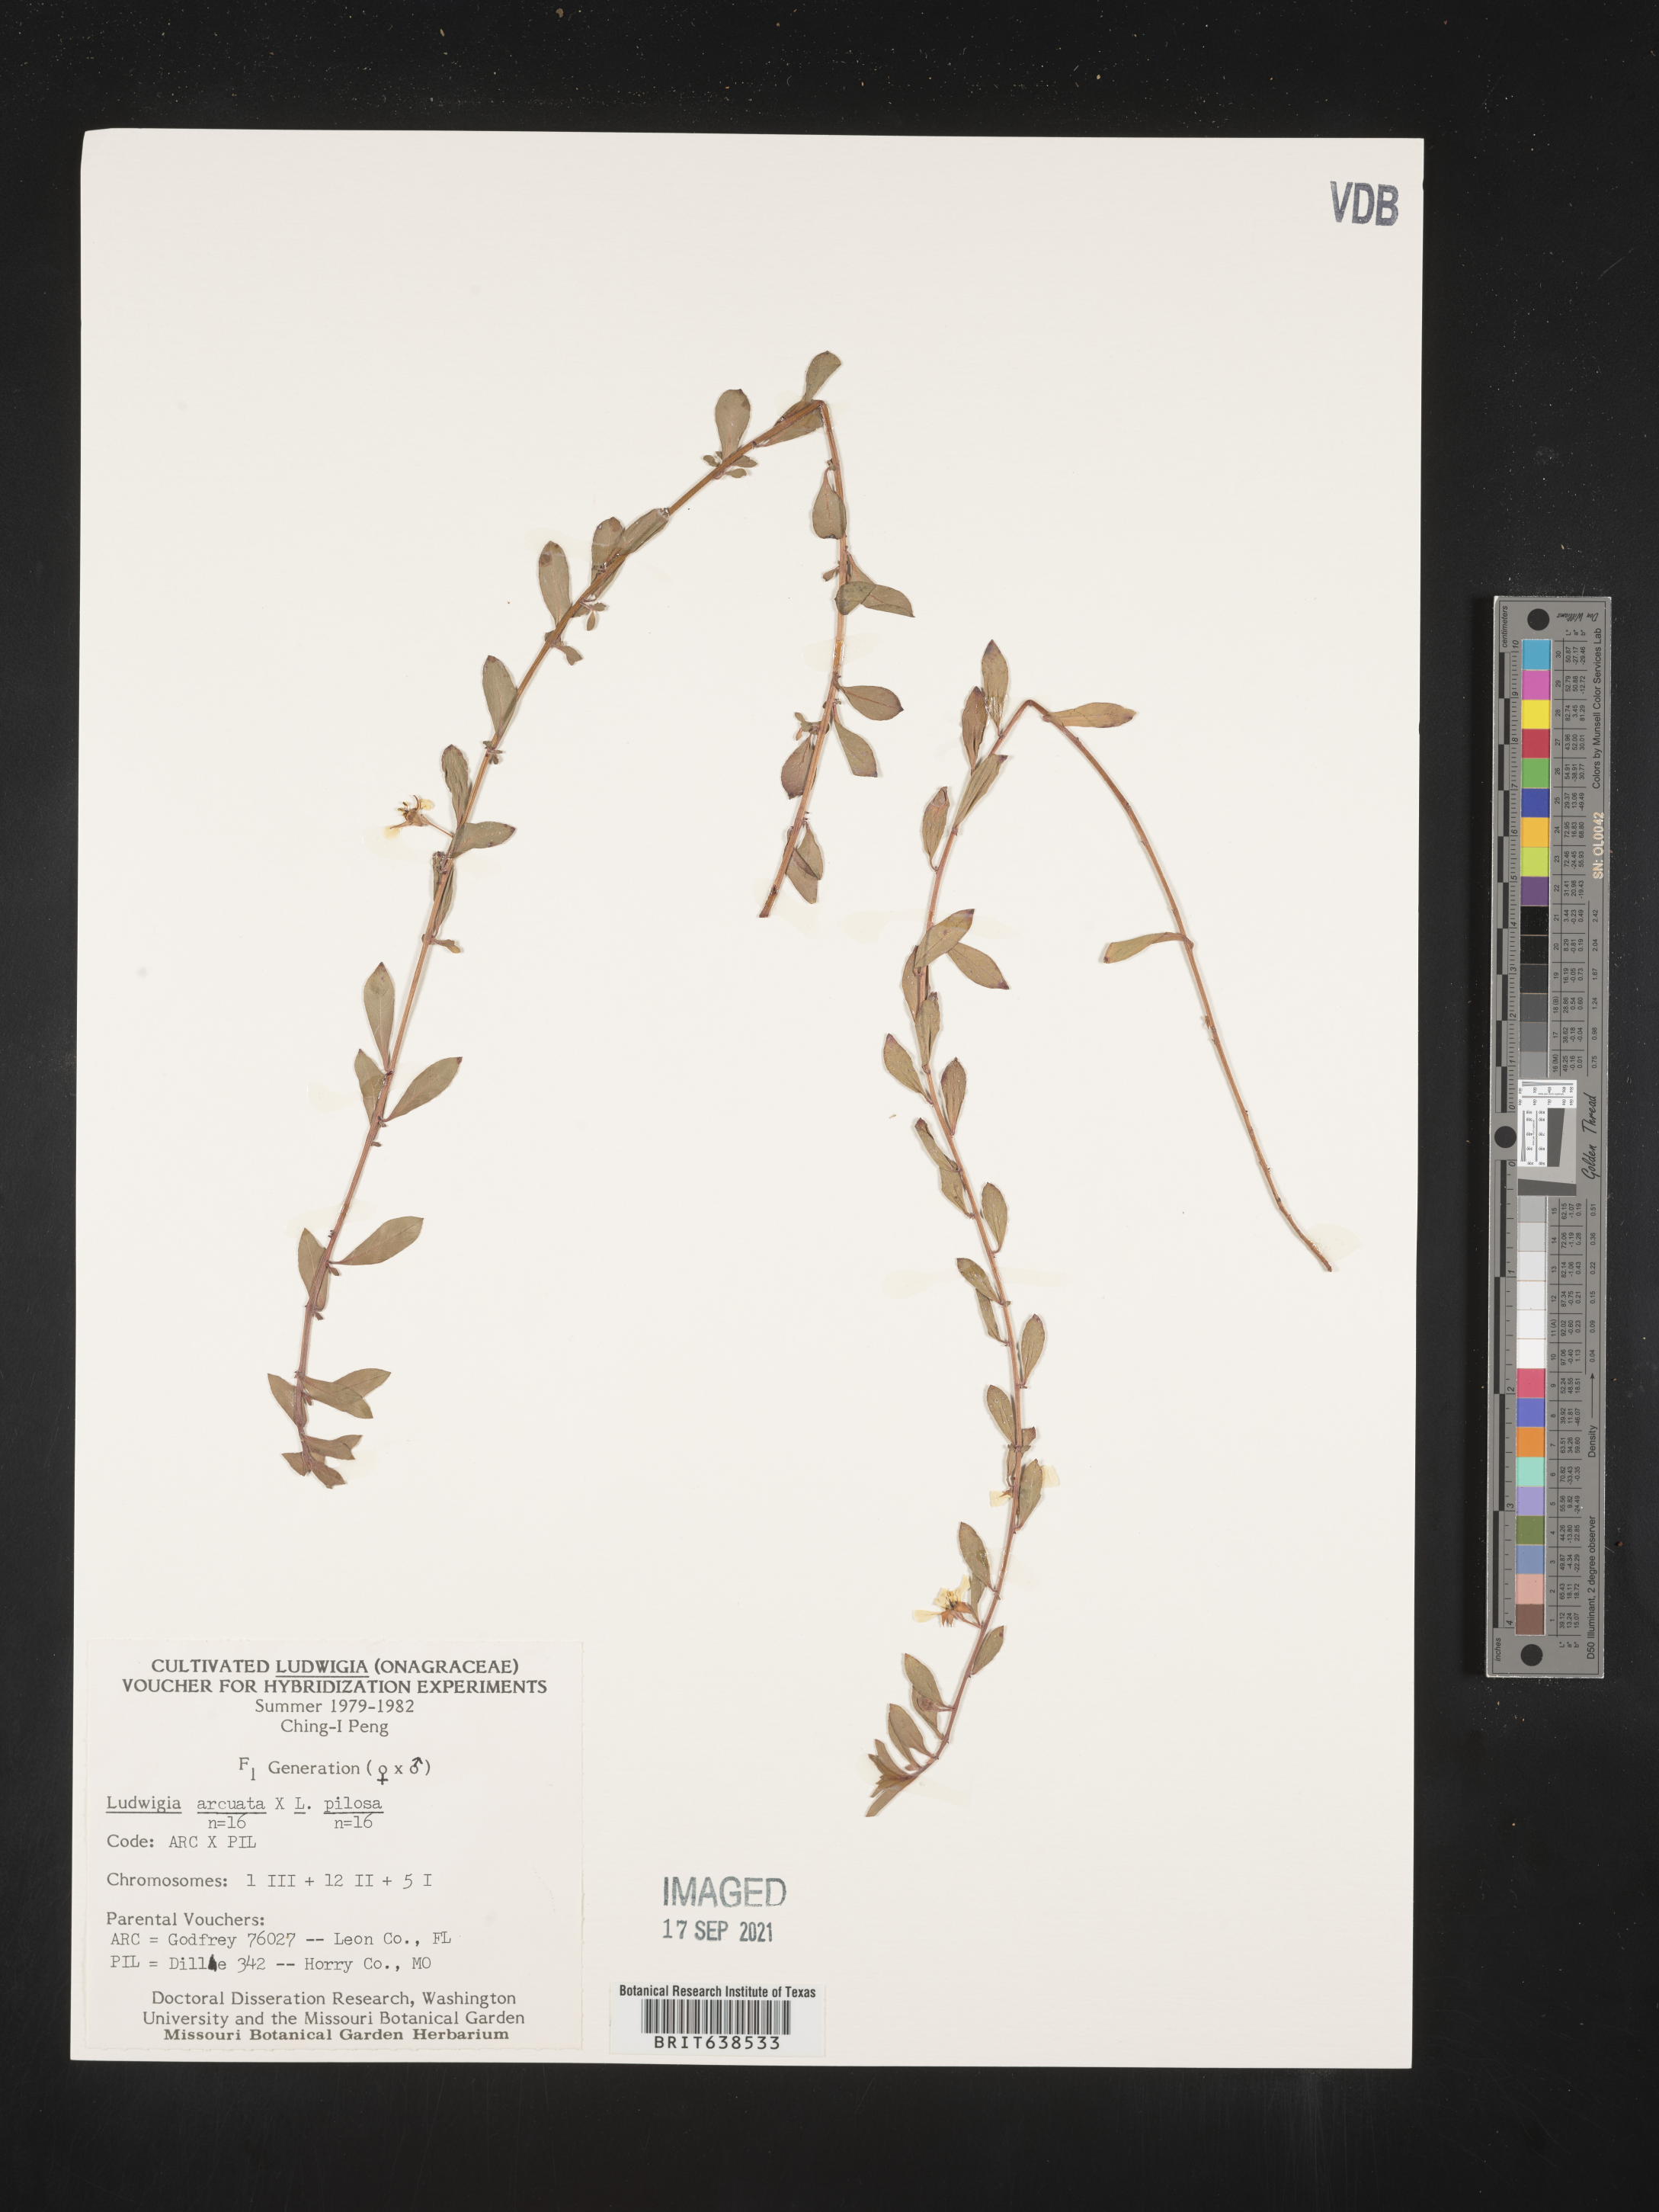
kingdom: Plantae
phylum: Tracheophyta
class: Magnoliopsida
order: Myrtales
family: Onagraceae
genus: Ludwigia
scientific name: Ludwigia
